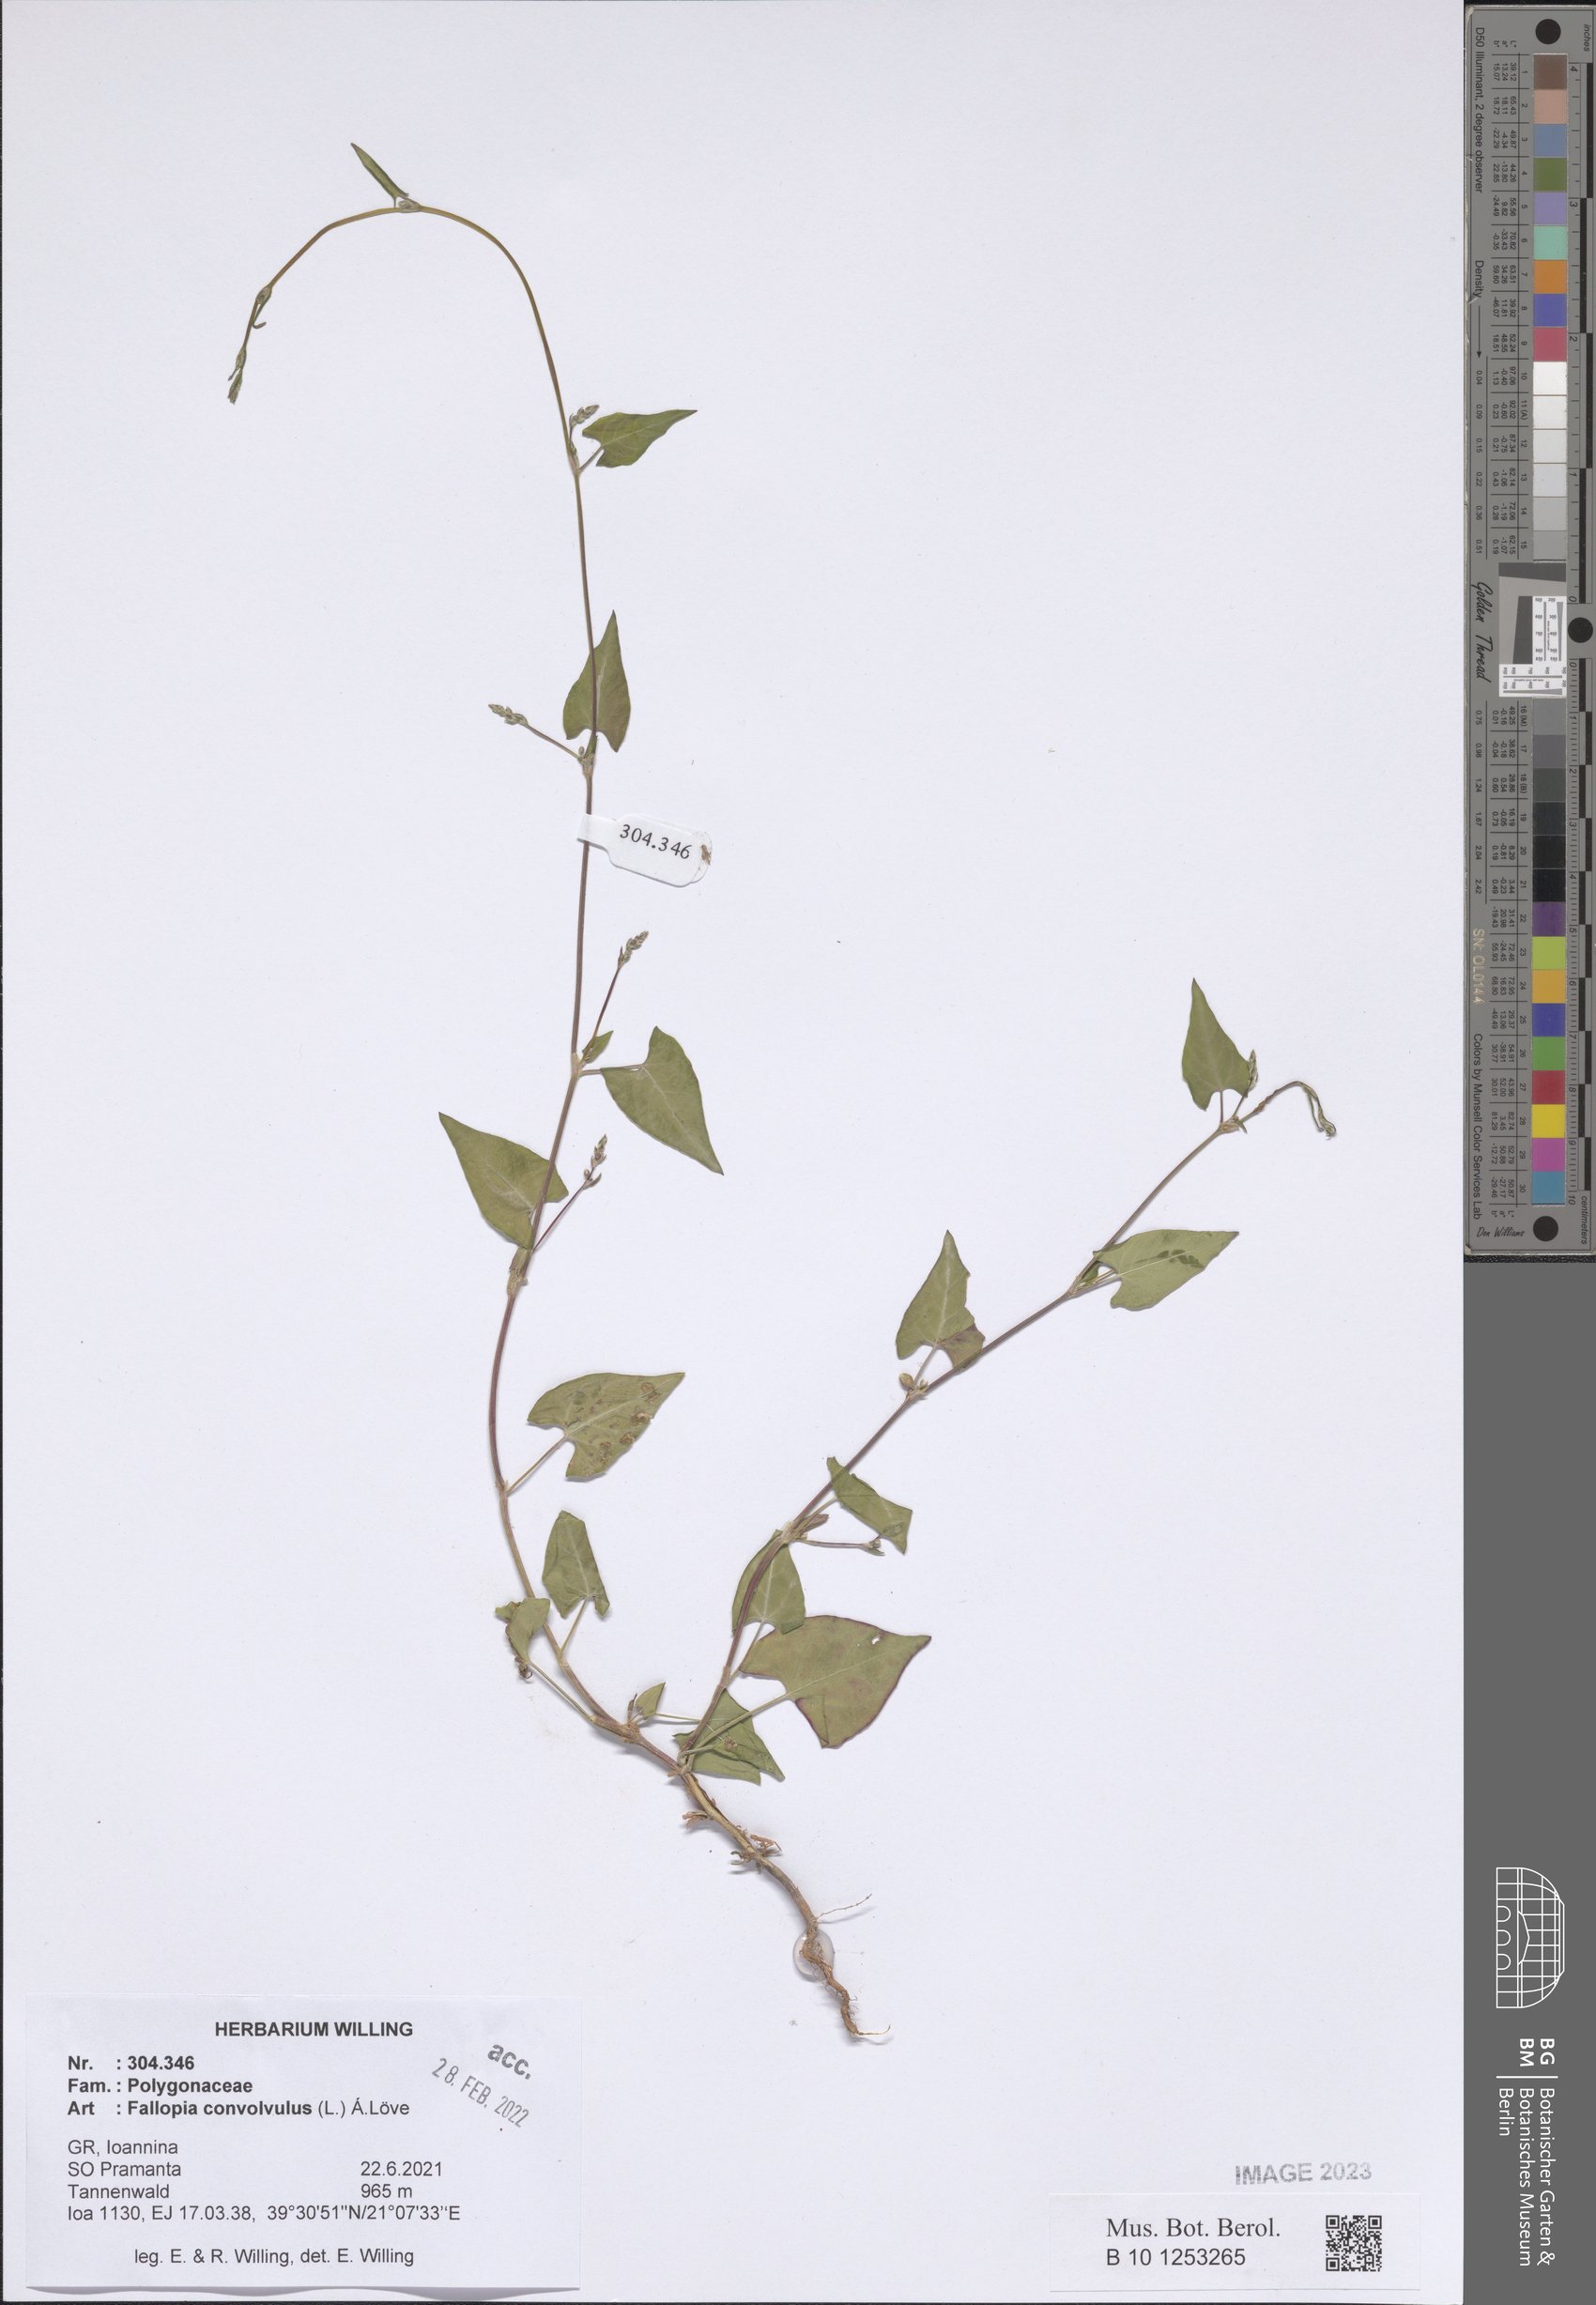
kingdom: Plantae
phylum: Tracheophyta
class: Magnoliopsida
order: Caryophyllales
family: Polygonaceae
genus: Fallopia
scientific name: Fallopia convolvulus
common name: Black bindweed
